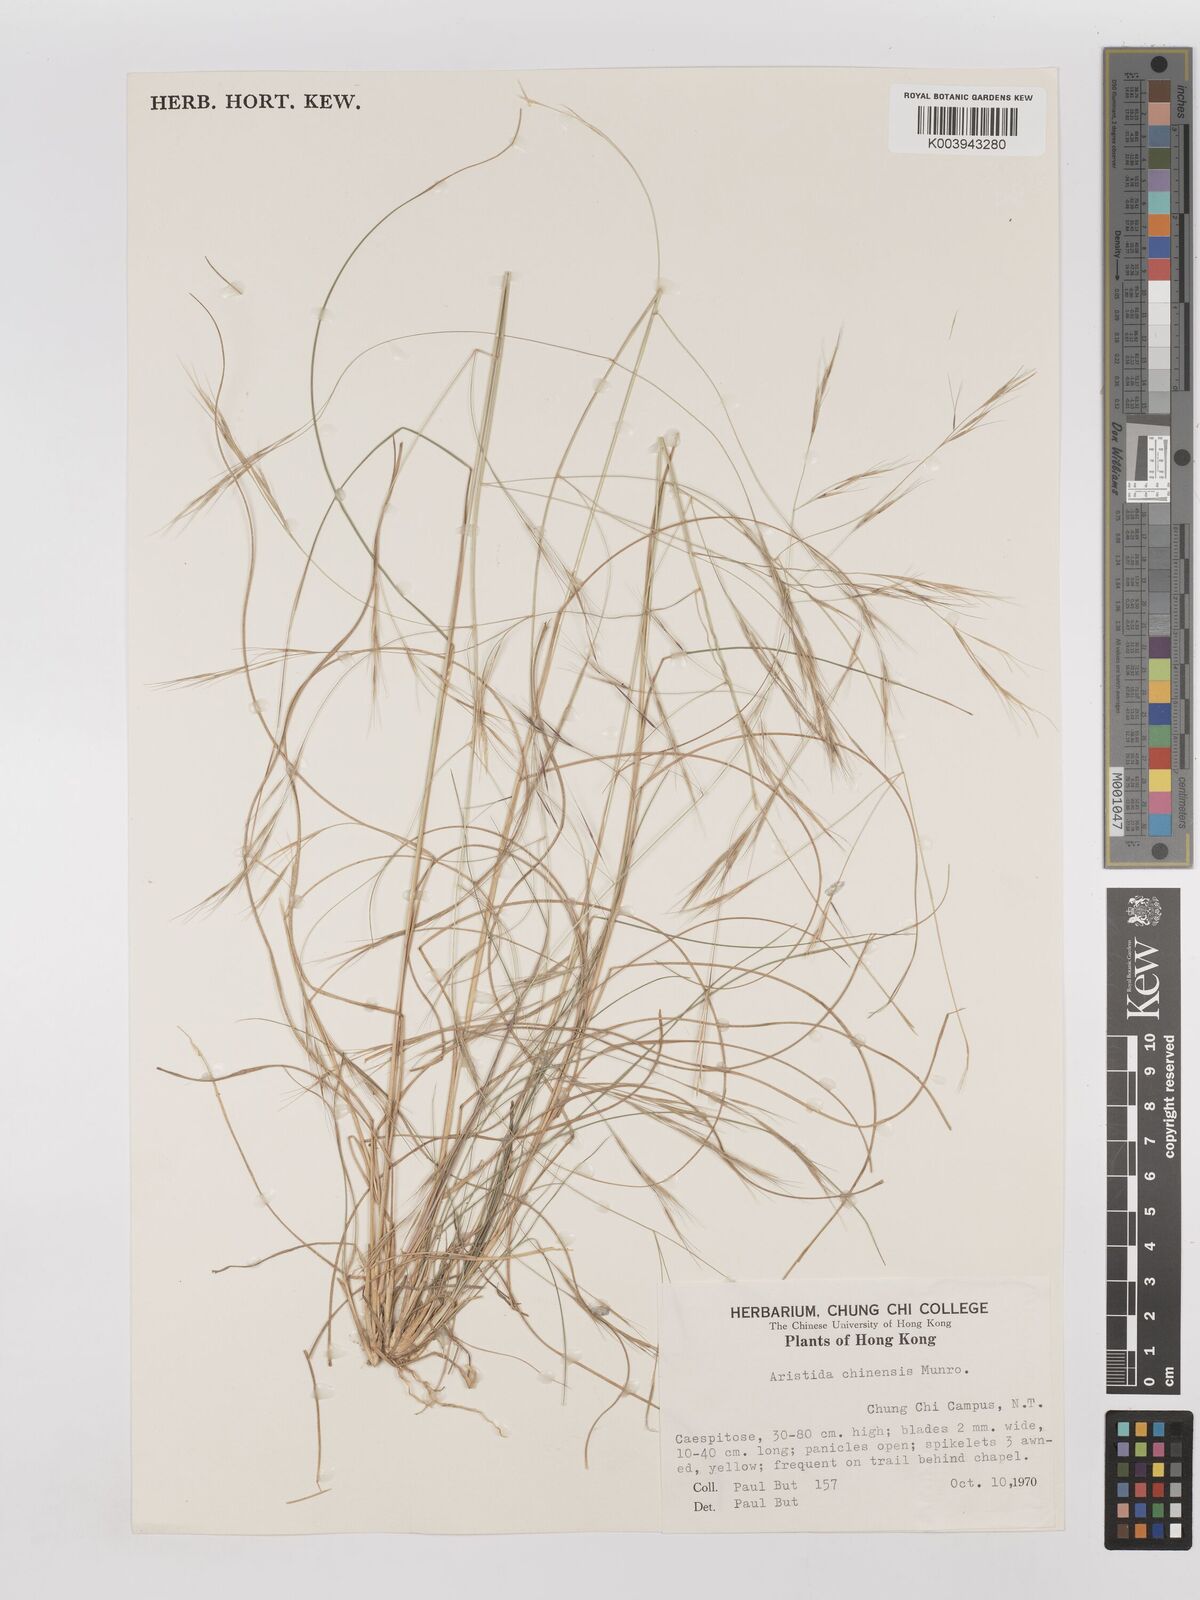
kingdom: Plantae
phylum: Tracheophyta
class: Liliopsida
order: Poales
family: Poaceae
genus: Aristida
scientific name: Aristida chinensis
